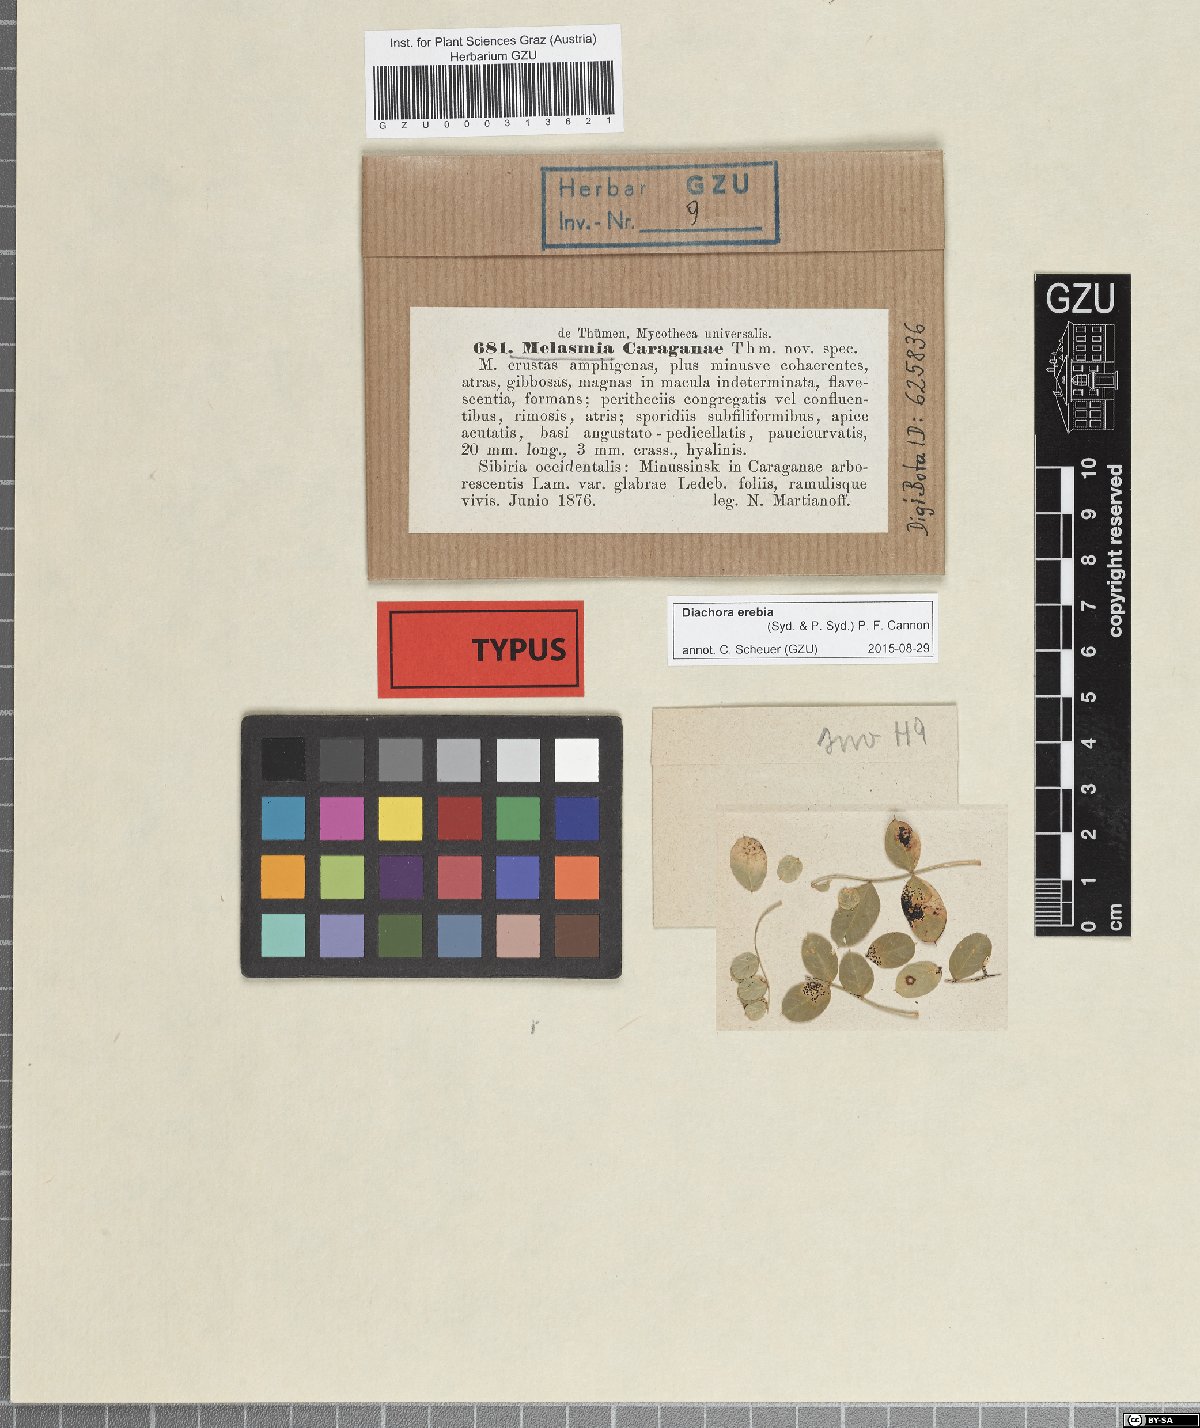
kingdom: Fungi
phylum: Ascomycota
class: Sordariomycetes
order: Phyllachorales
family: Phyllachoraceae
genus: Diachora
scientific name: Diachora erebia
